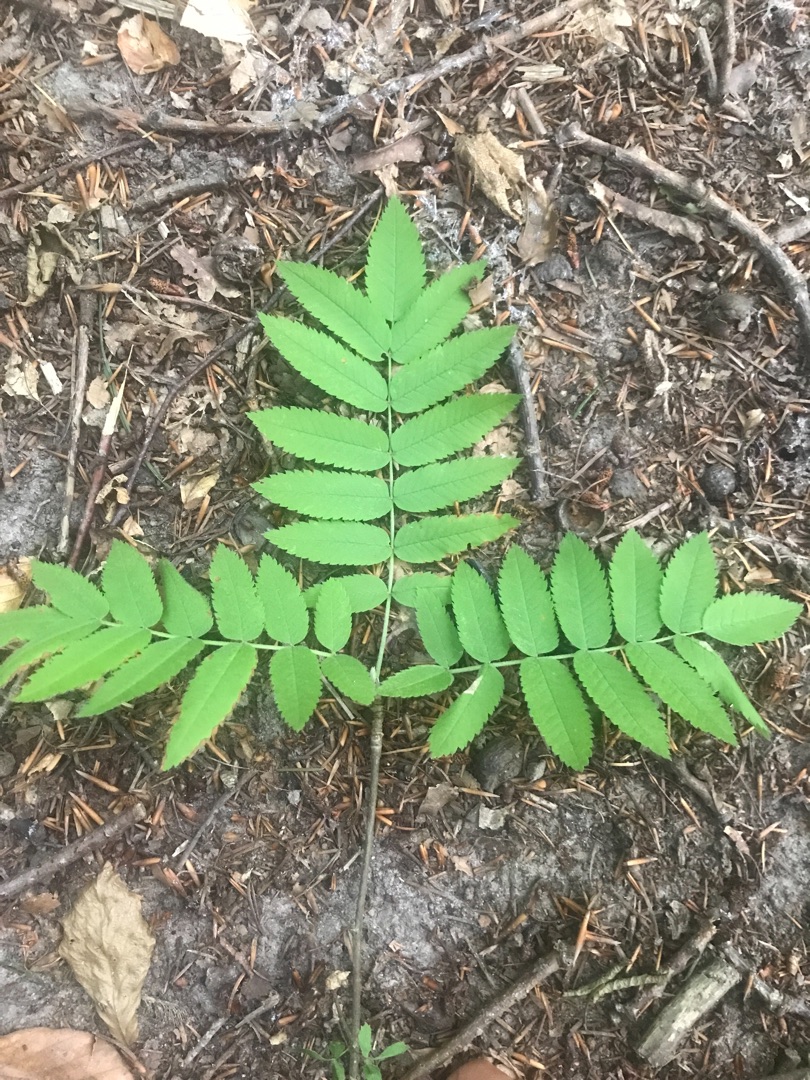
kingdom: Plantae
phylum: Tracheophyta
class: Magnoliopsida
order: Rosales
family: Rosaceae
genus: Sorbus
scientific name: Sorbus aucuparia
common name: Almindelig røn
